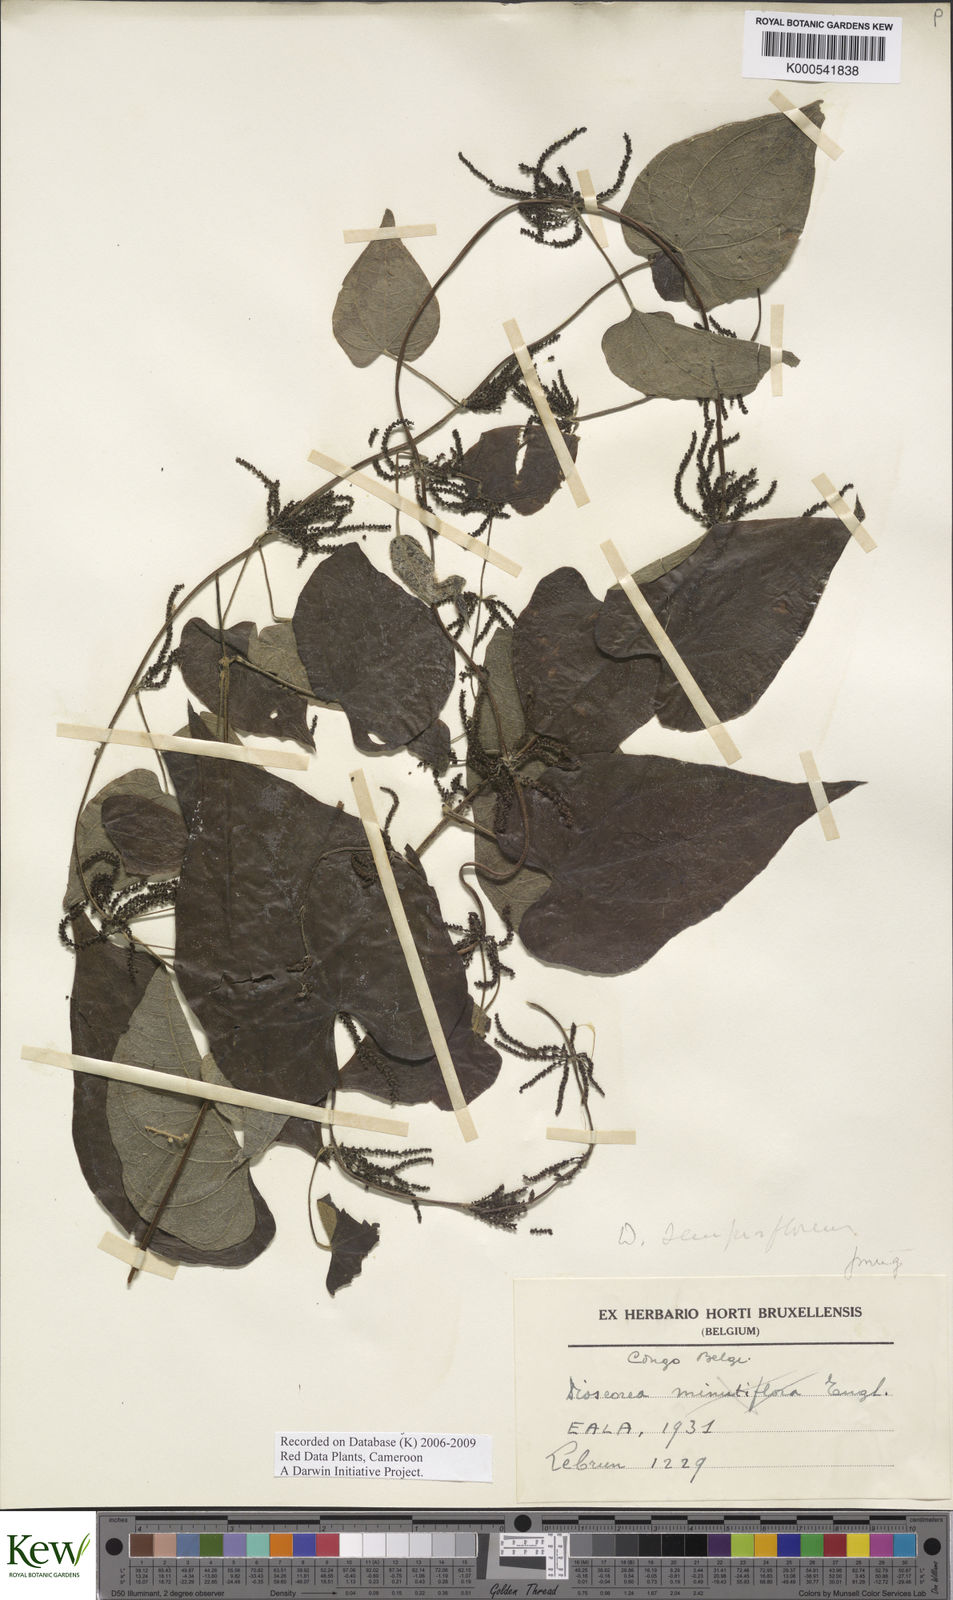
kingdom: Plantae
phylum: Tracheophyta
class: Liliopsida
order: Dioscoreales
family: Dioscoreaceae
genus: Dioscorea
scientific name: Dioscorea semperflorens
